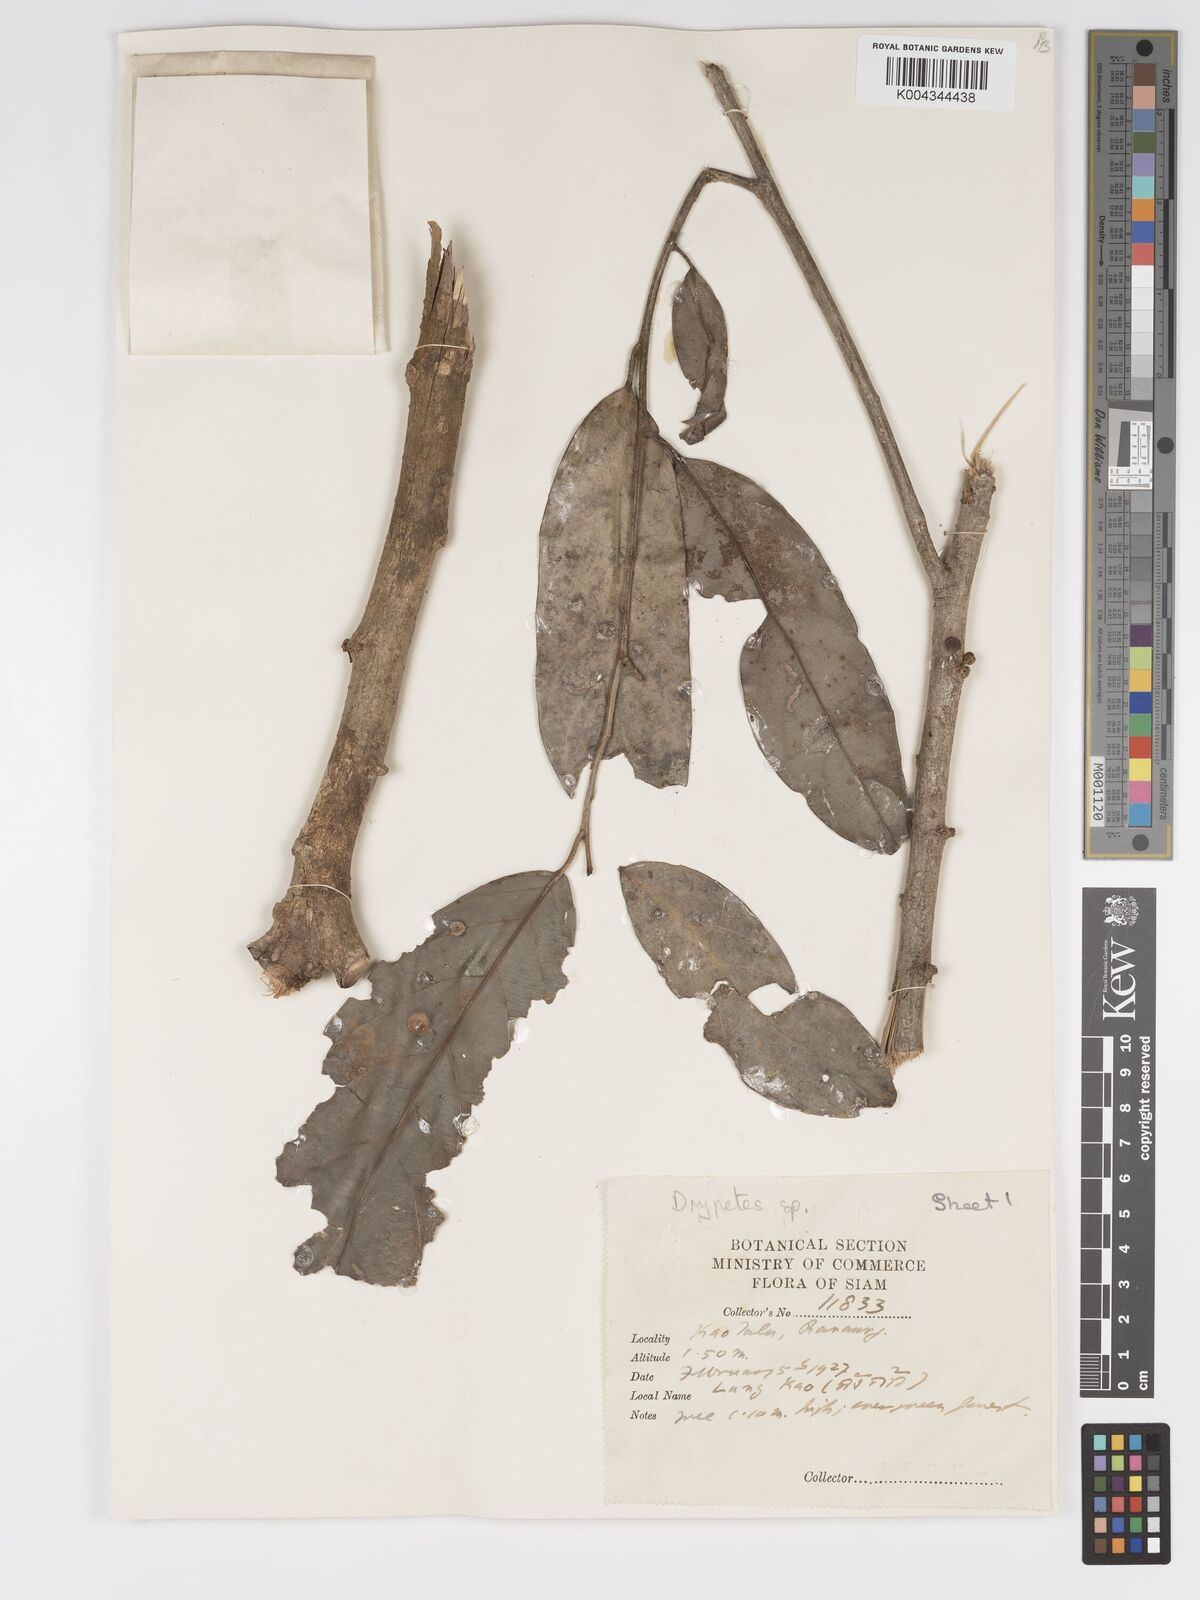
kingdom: Plantae
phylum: Tracheophyta
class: Magnoliopsida
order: Malpighiales
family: Putranjivaceae
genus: Drypetes
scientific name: Drypetes longifolia
